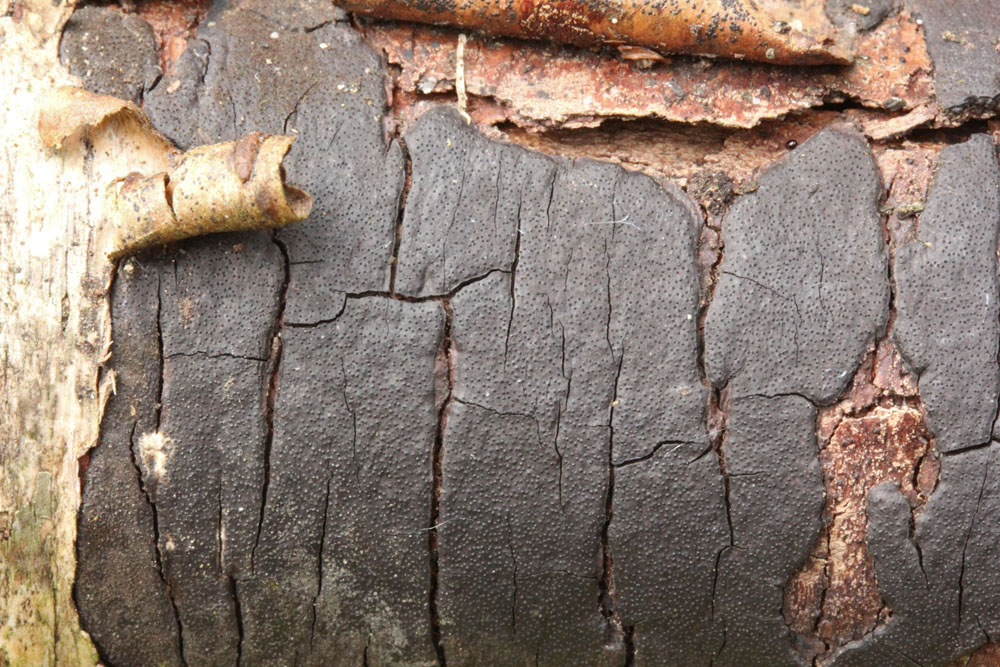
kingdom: Fungi
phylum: Ascomycota
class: Sordariomycetes
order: Xylariales
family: Diatrypaceae
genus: Diatrype
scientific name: Diatrype stigma
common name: udbredt kulskorpe
